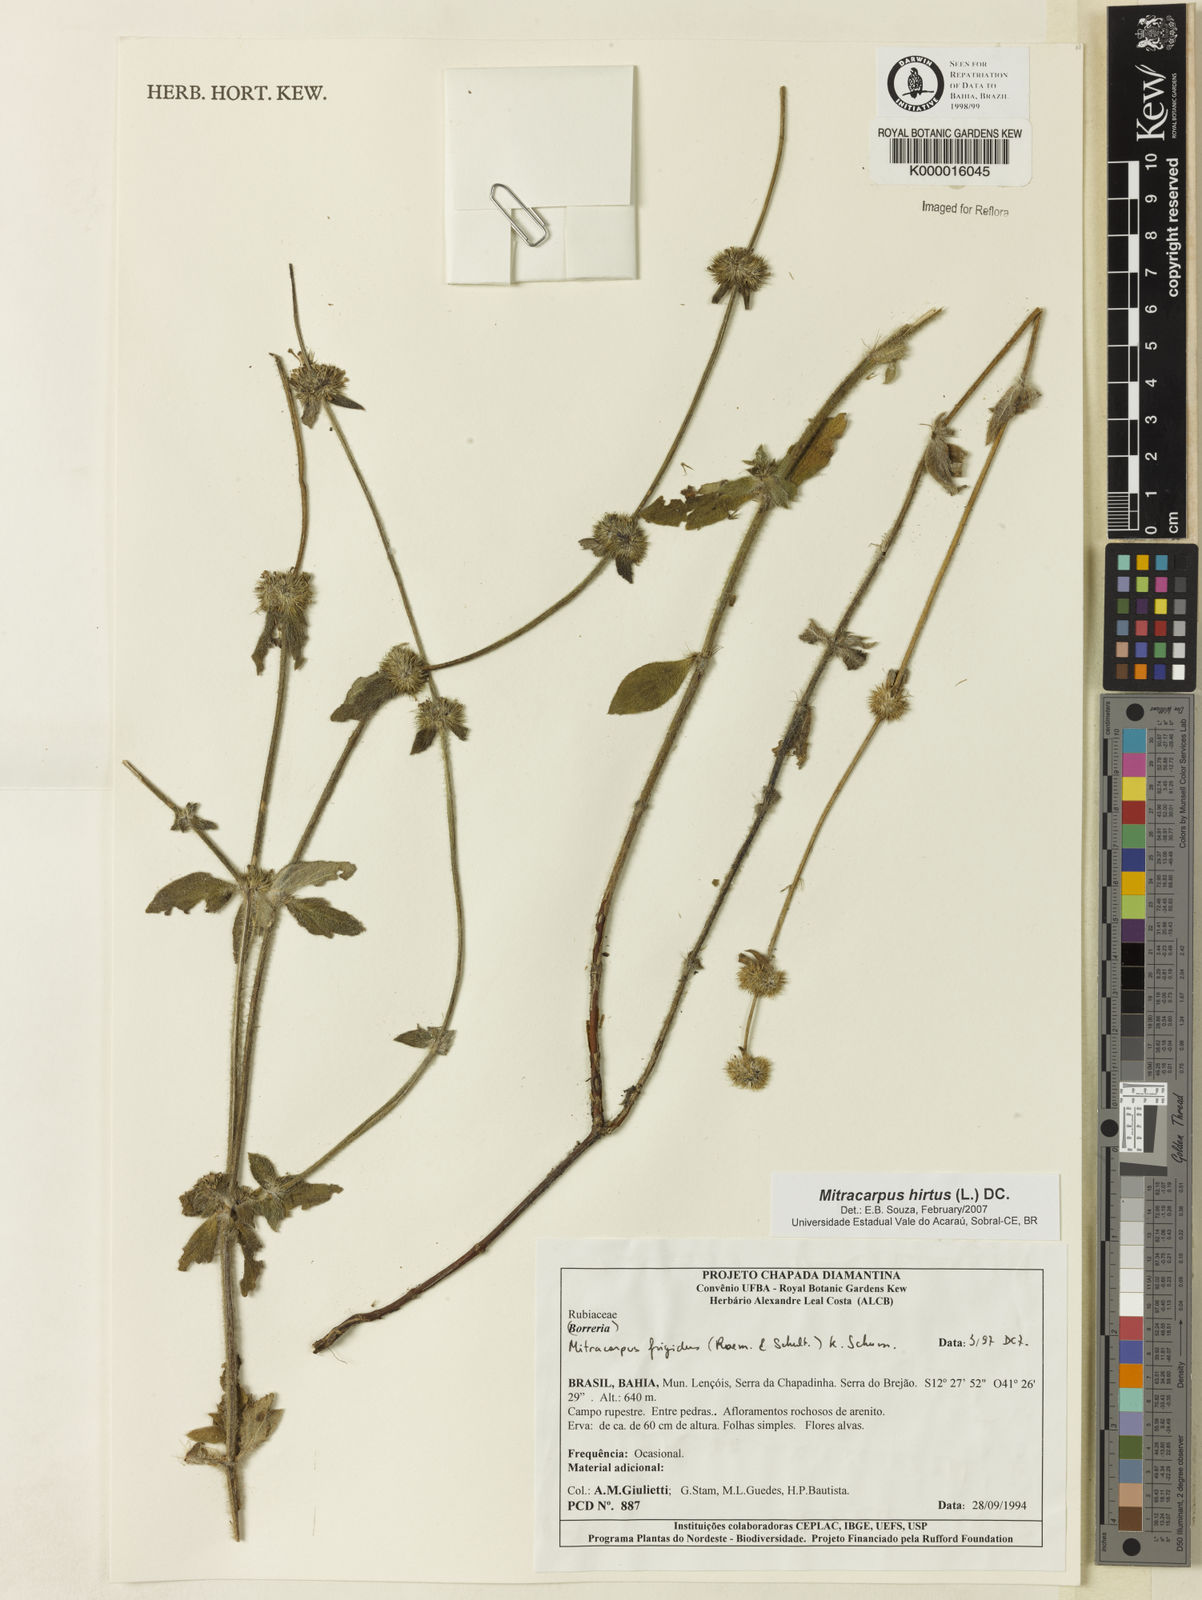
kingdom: Plantae
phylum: Tracheophyta
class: Magnoliopsida
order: Gentianales
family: Rubiaceae
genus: Mitracarpus
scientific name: Mitracarpus frigidus
